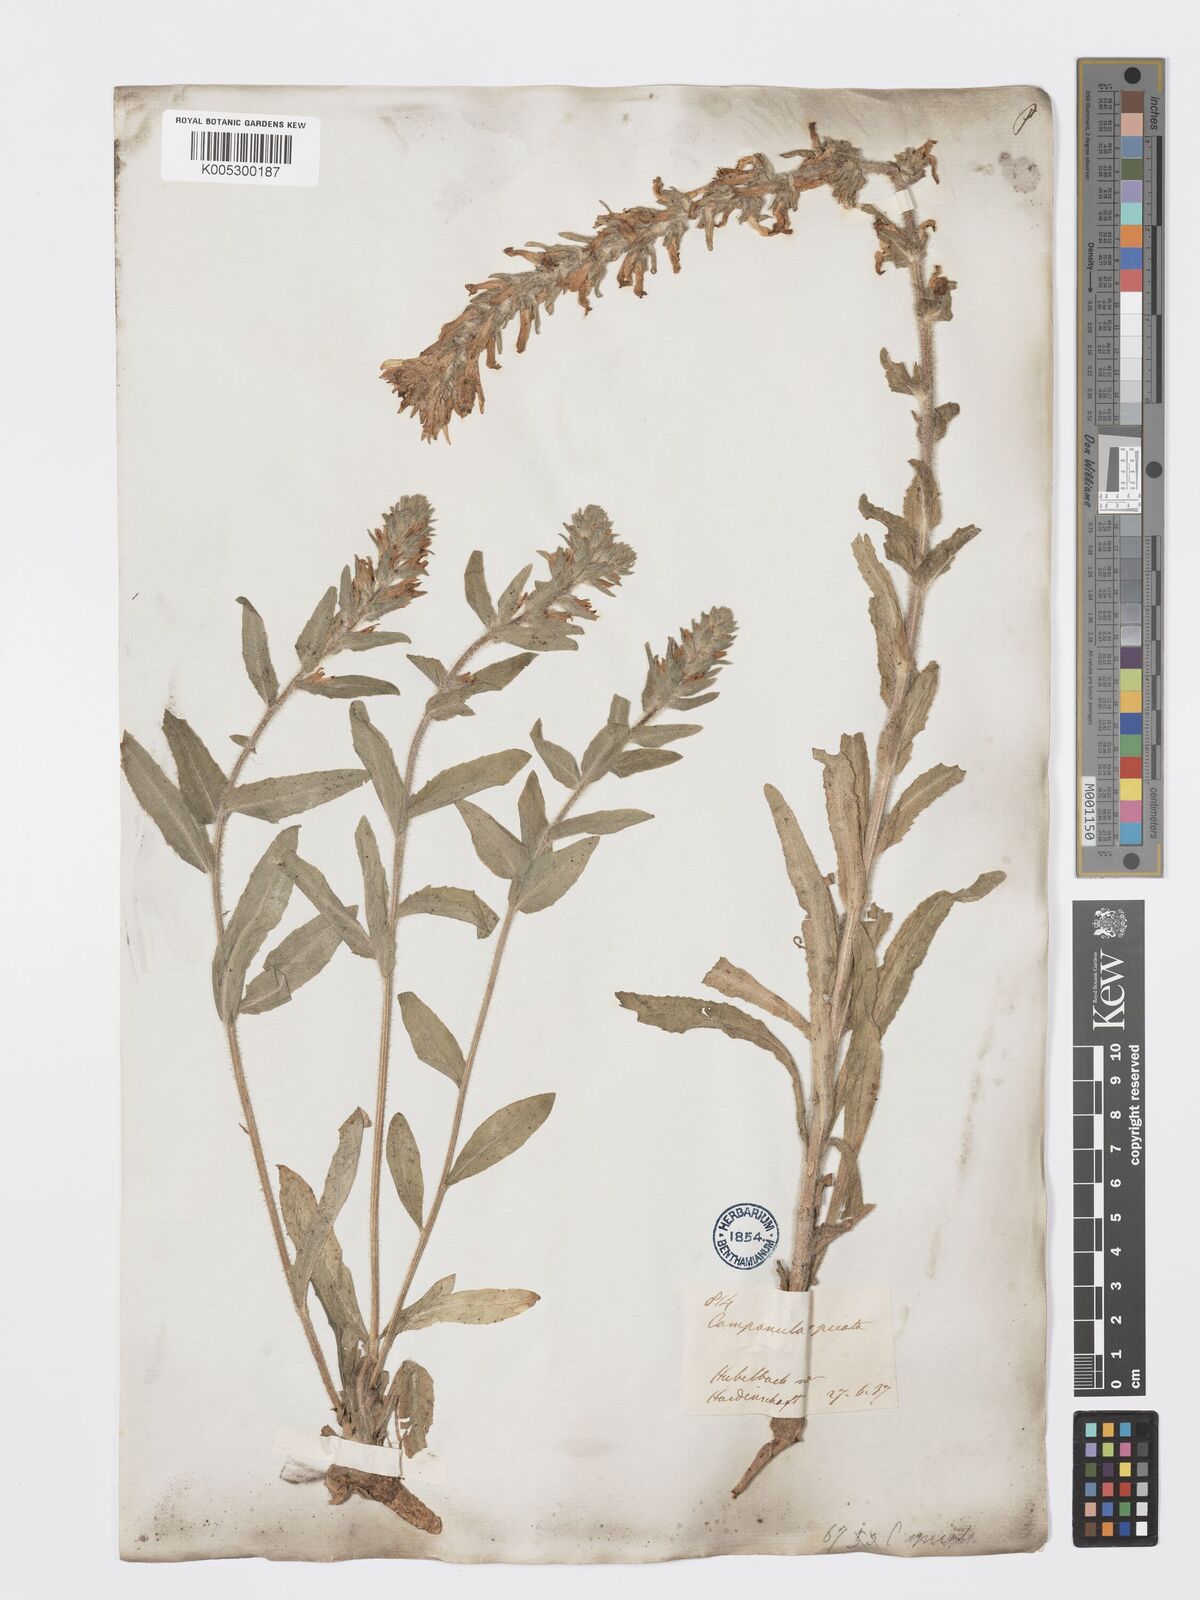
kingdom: Plantae
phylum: Tracheophyta
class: Magnoliopsida
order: Asterales
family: Campanulaceae
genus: Campanula
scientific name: Campanula spicata
